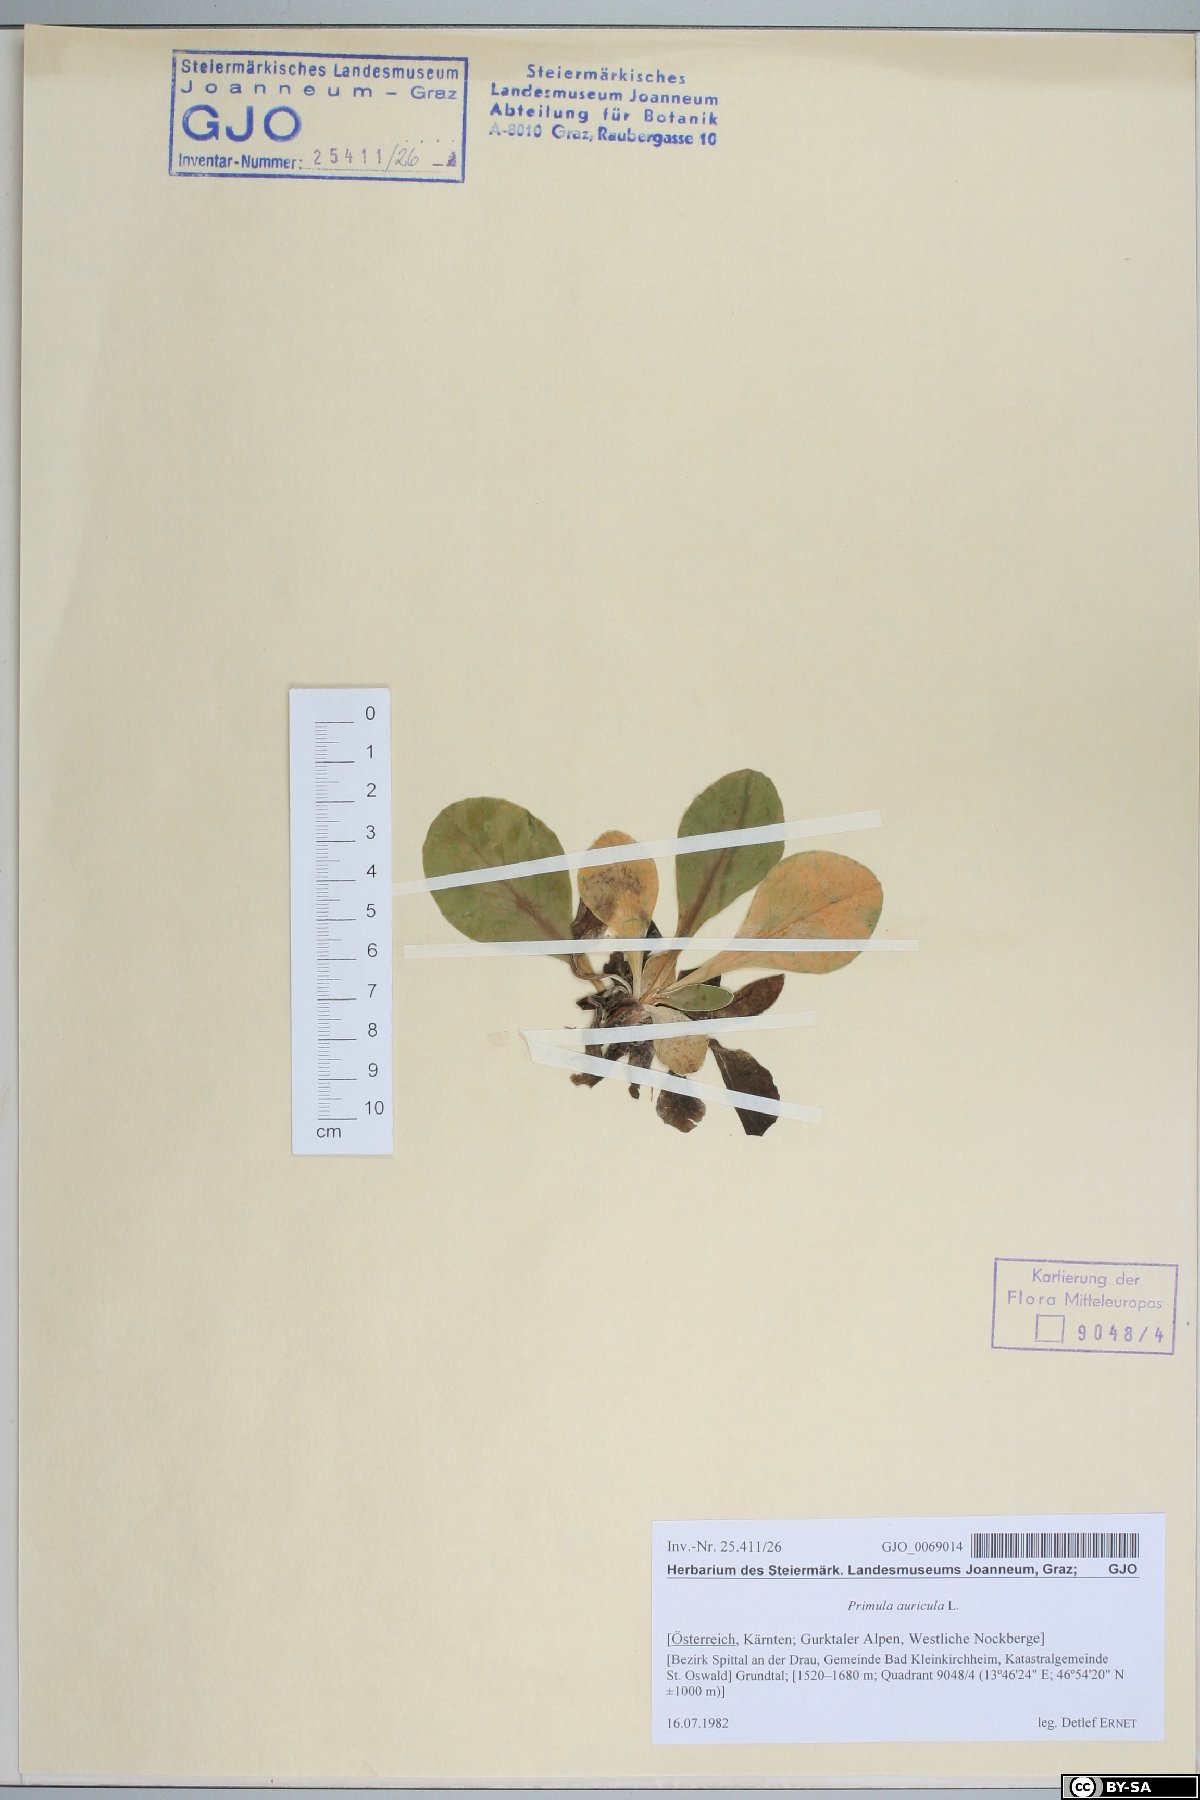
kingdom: Plantae
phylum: Tracheophyta
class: Magnoliopsida
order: Ericales
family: Primulaceae
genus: Primula
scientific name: Primula auricula
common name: Auricula
